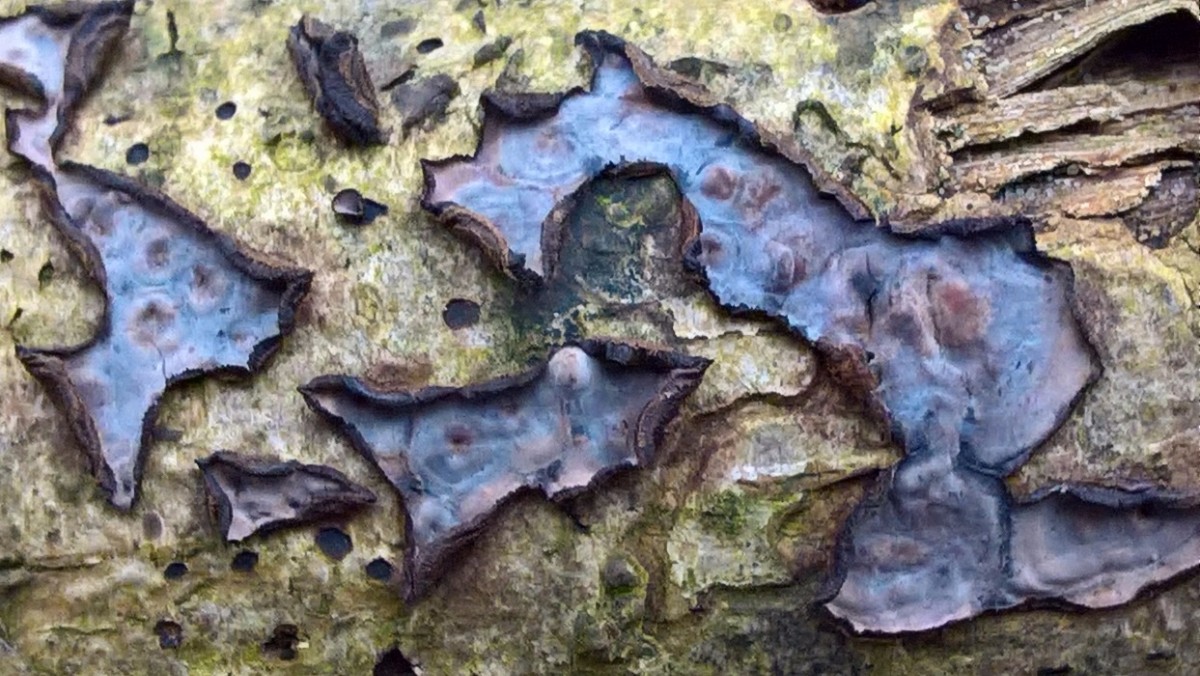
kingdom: Fungi
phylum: Basidiomycota
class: Agaricomycetes
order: Russulales
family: Peniophoraceae
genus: Peniophora
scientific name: Peniophora quercina
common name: ege-voksskind
